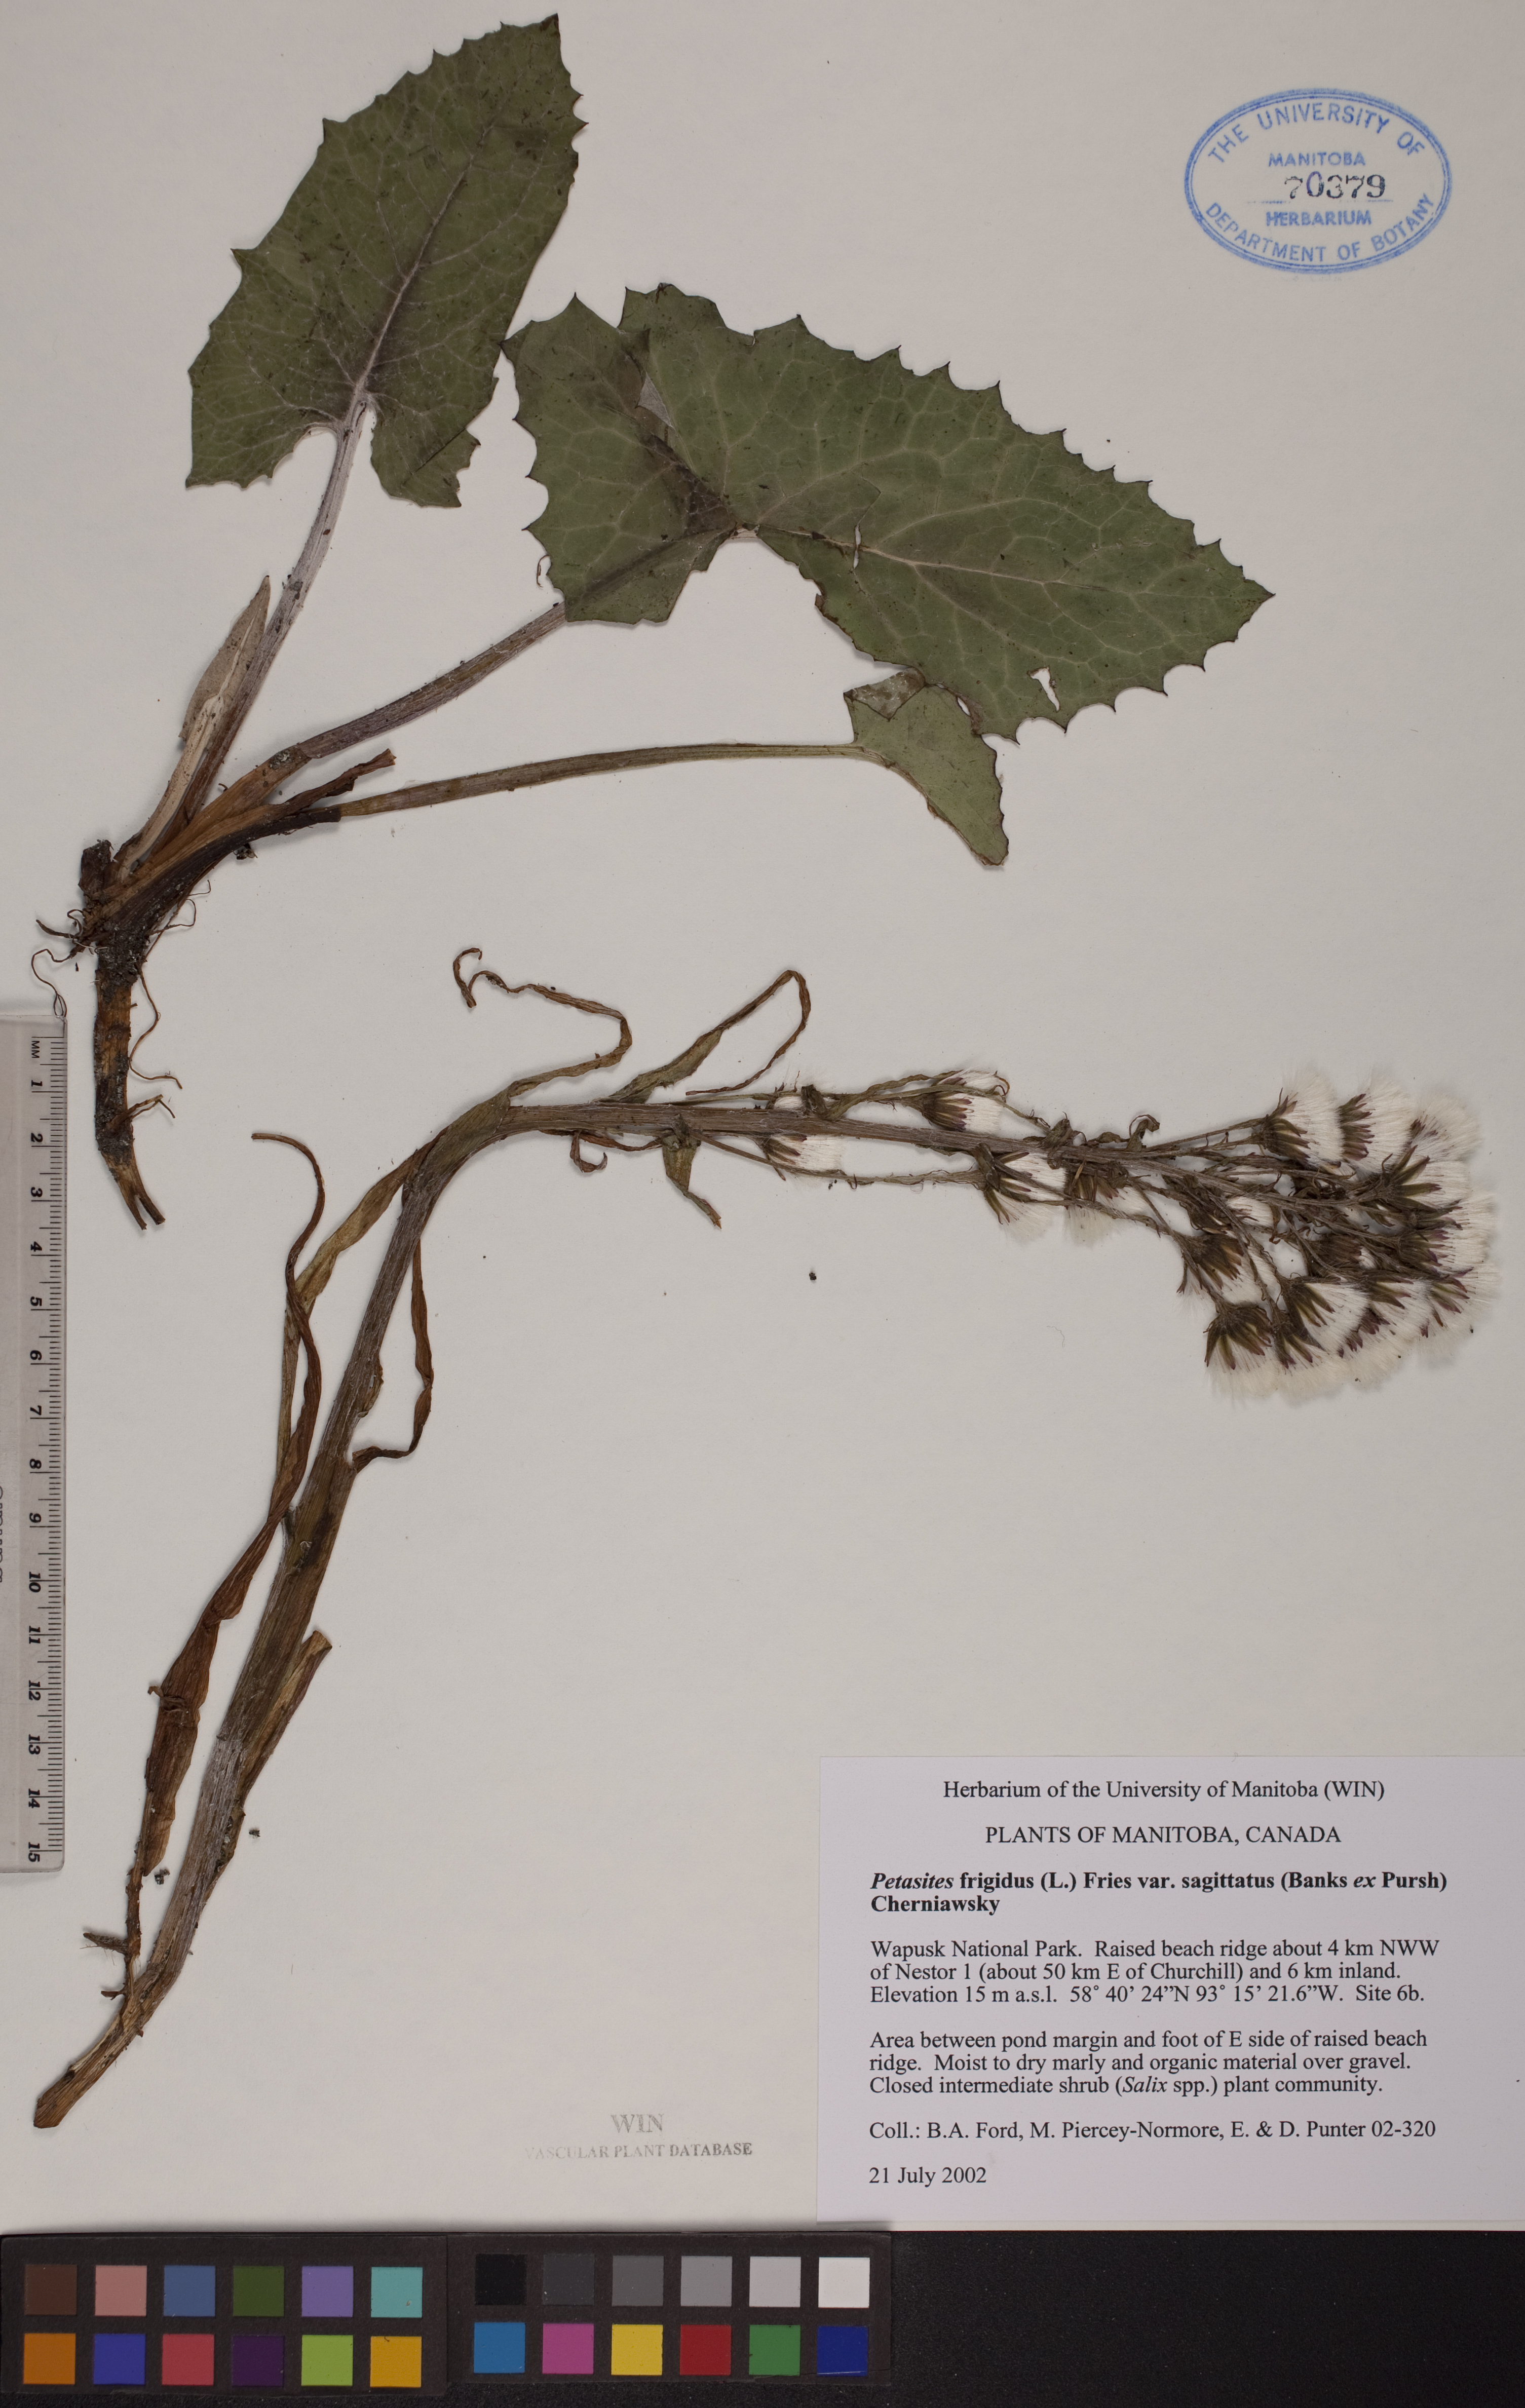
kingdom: Plantae
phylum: Tracheophyta
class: Magnoliopsida
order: Asterales
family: Asteraceae
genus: Petasites
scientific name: Petasites frigidus
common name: Arctic butterbur
